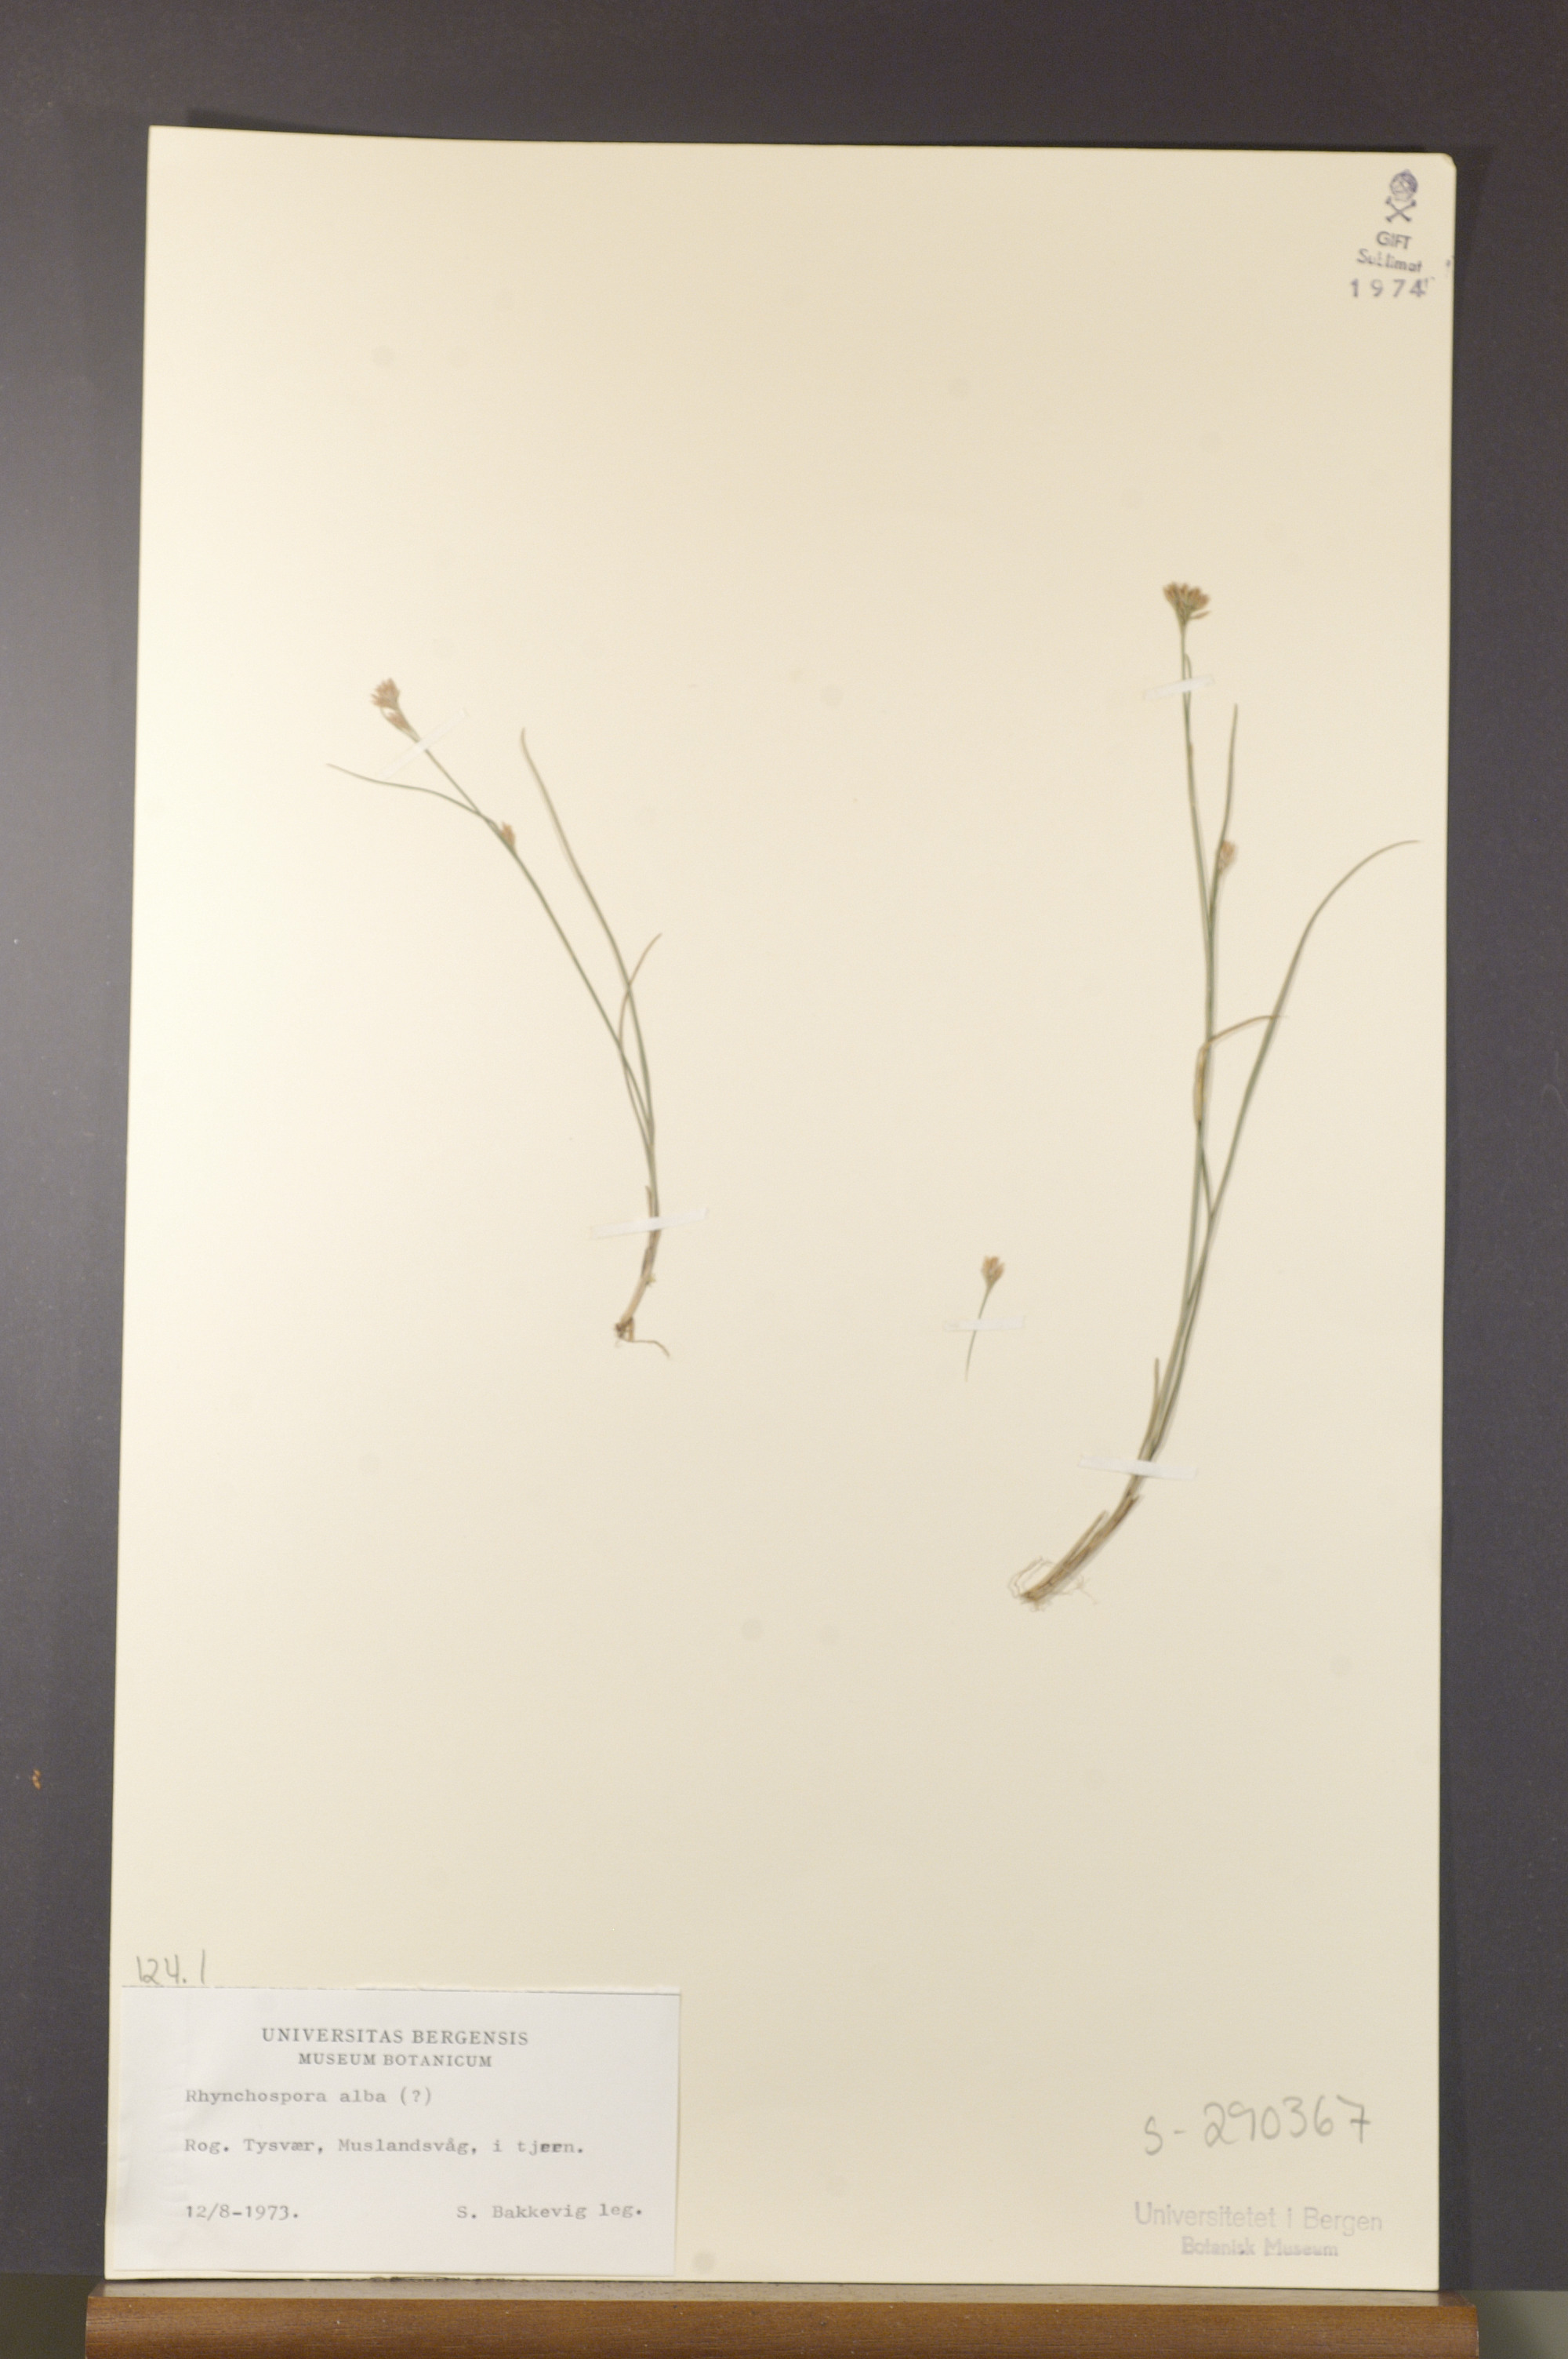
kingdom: Plantae
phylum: Tracheophyta
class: Liliopsida
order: Poales
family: Cyperaceae
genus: Rhynchospora
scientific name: Rhynchospora alba
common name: White beak-sedge
